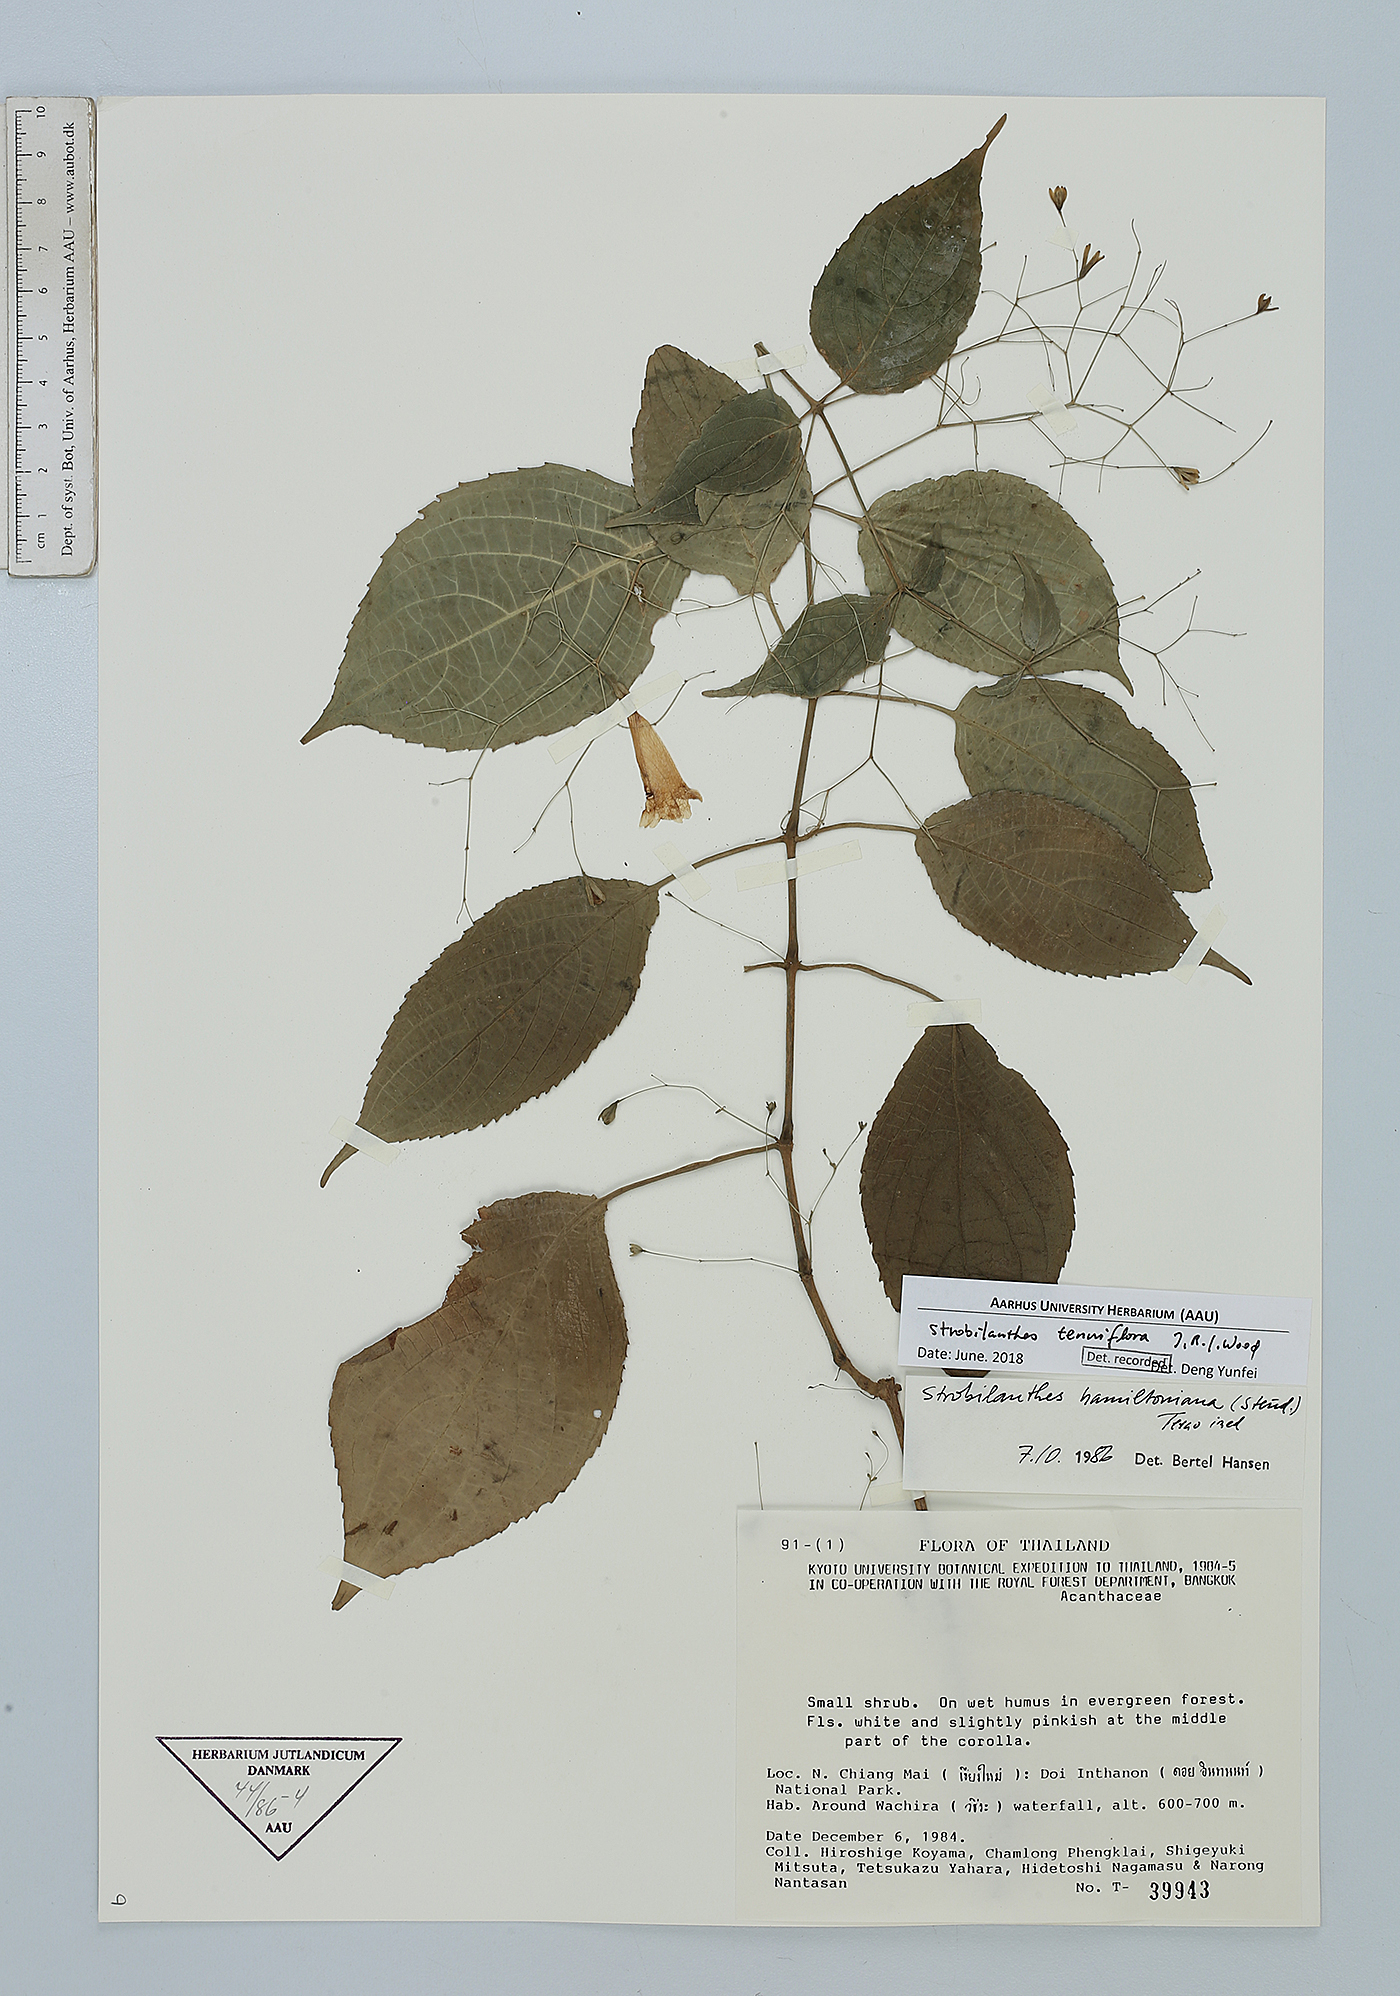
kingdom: Plantae
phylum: Tracheophyta
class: Magnoliopsida
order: Lamiales
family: Acanthaceae
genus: Strobilanthes
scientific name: Strobilanthes tenuiflora
